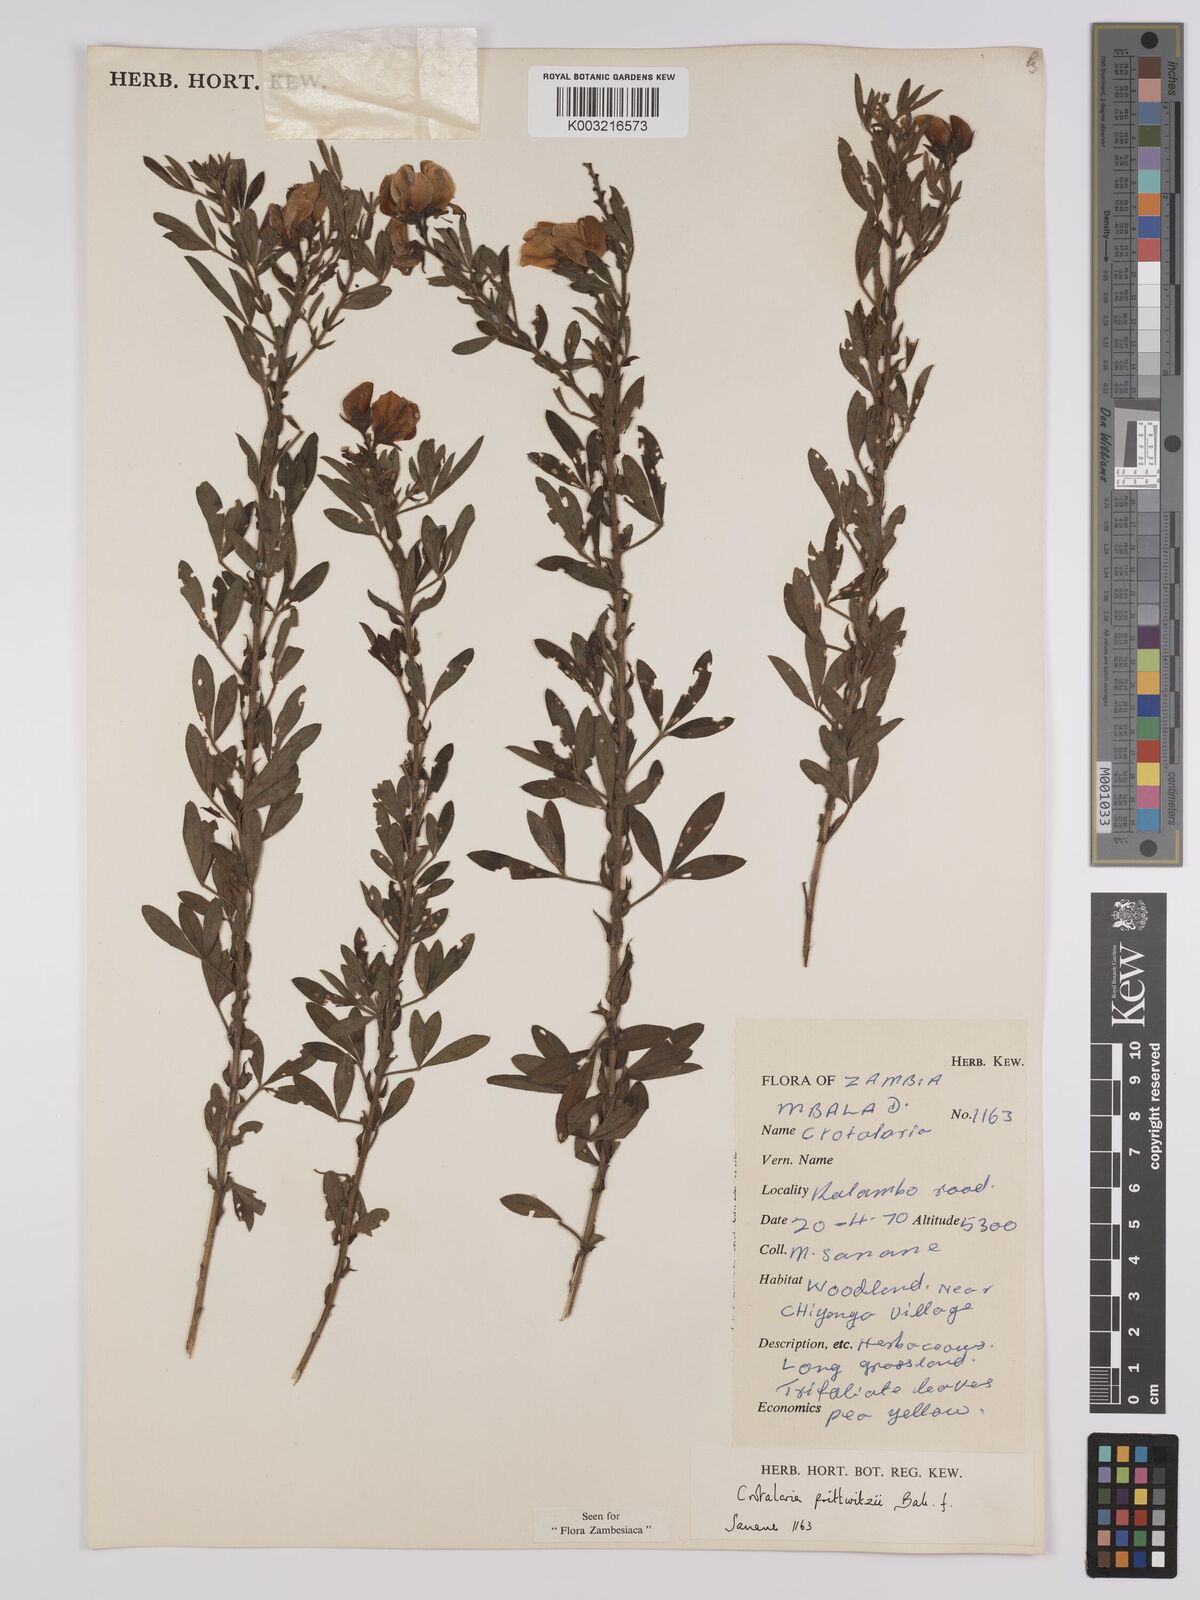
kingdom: Plantae
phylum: Tracheophyta
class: Magnoliopsida
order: Fabales
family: Fabaceae
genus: Crotalaria
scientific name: Crotalaria prittwitzii
